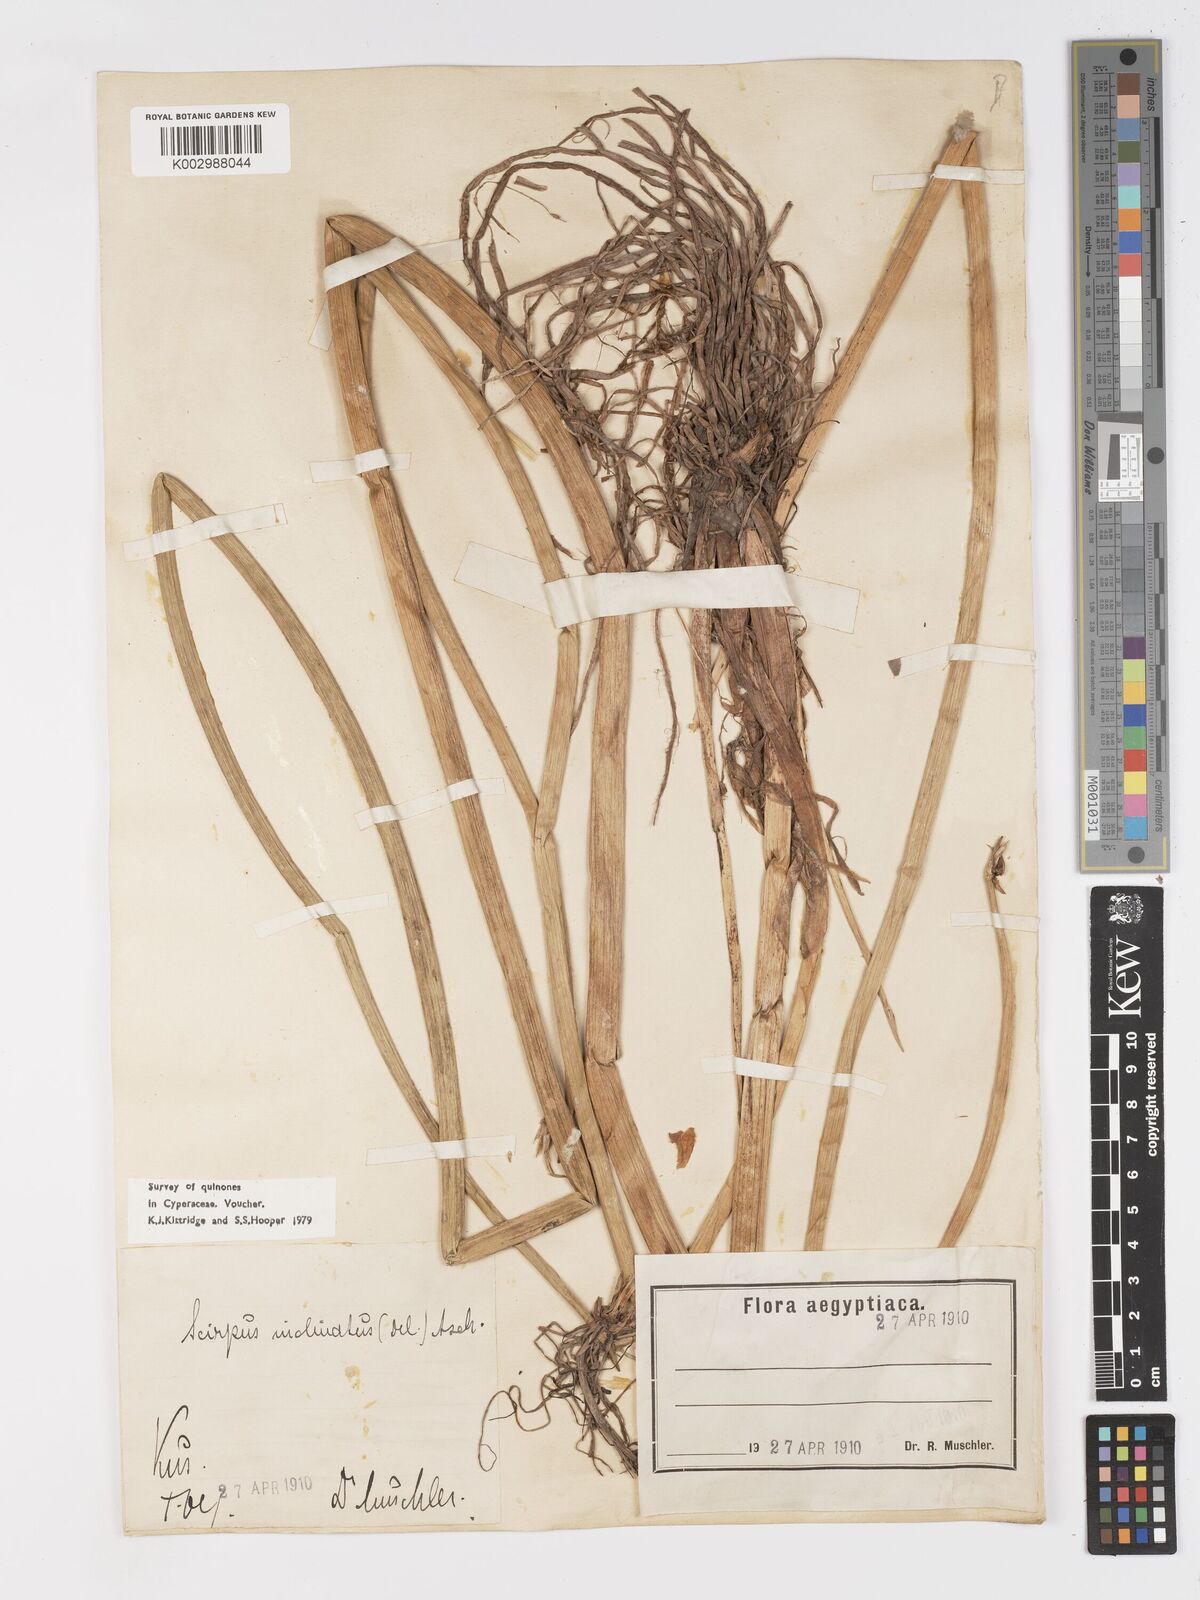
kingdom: Plantae
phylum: Tracheophyta
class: Liliopsida
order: Poales
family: Cyperaceae
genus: Schoenoplectiella
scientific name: Schoenoplectiella corymbosa
